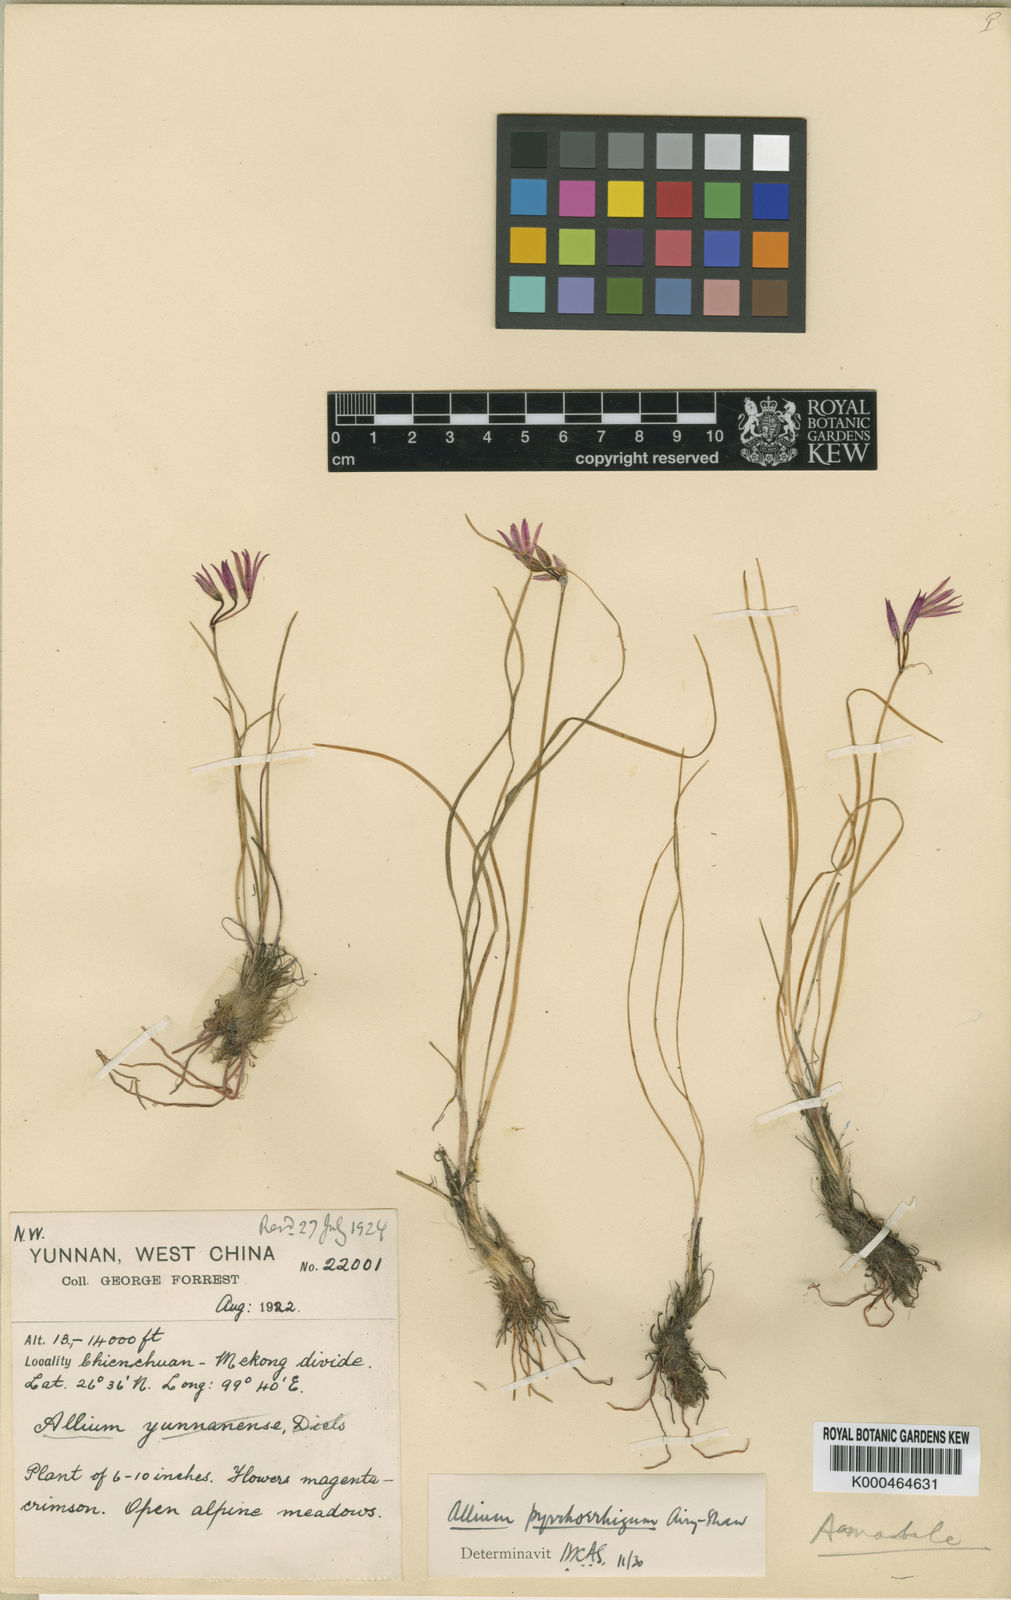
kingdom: Plantae
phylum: Tracheophyta
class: Liliopsida
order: Asparagales
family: Amaryllidaceae
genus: Allium
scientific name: Allium mairei
